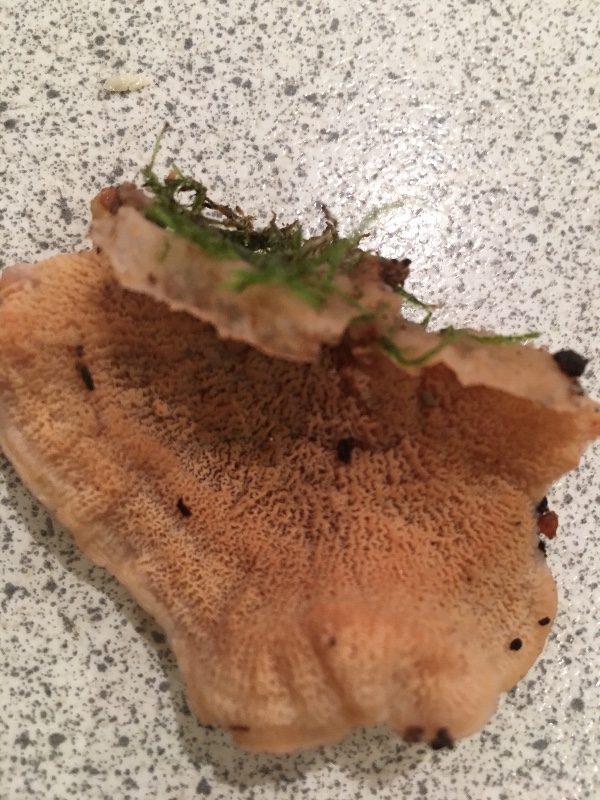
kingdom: Fungi
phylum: Basidiomycota
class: Agaricomycetes
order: Polyporales
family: Meruliaceae
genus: Phlebia
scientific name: Phlebia tremellosa
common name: bævrende åresvamp
